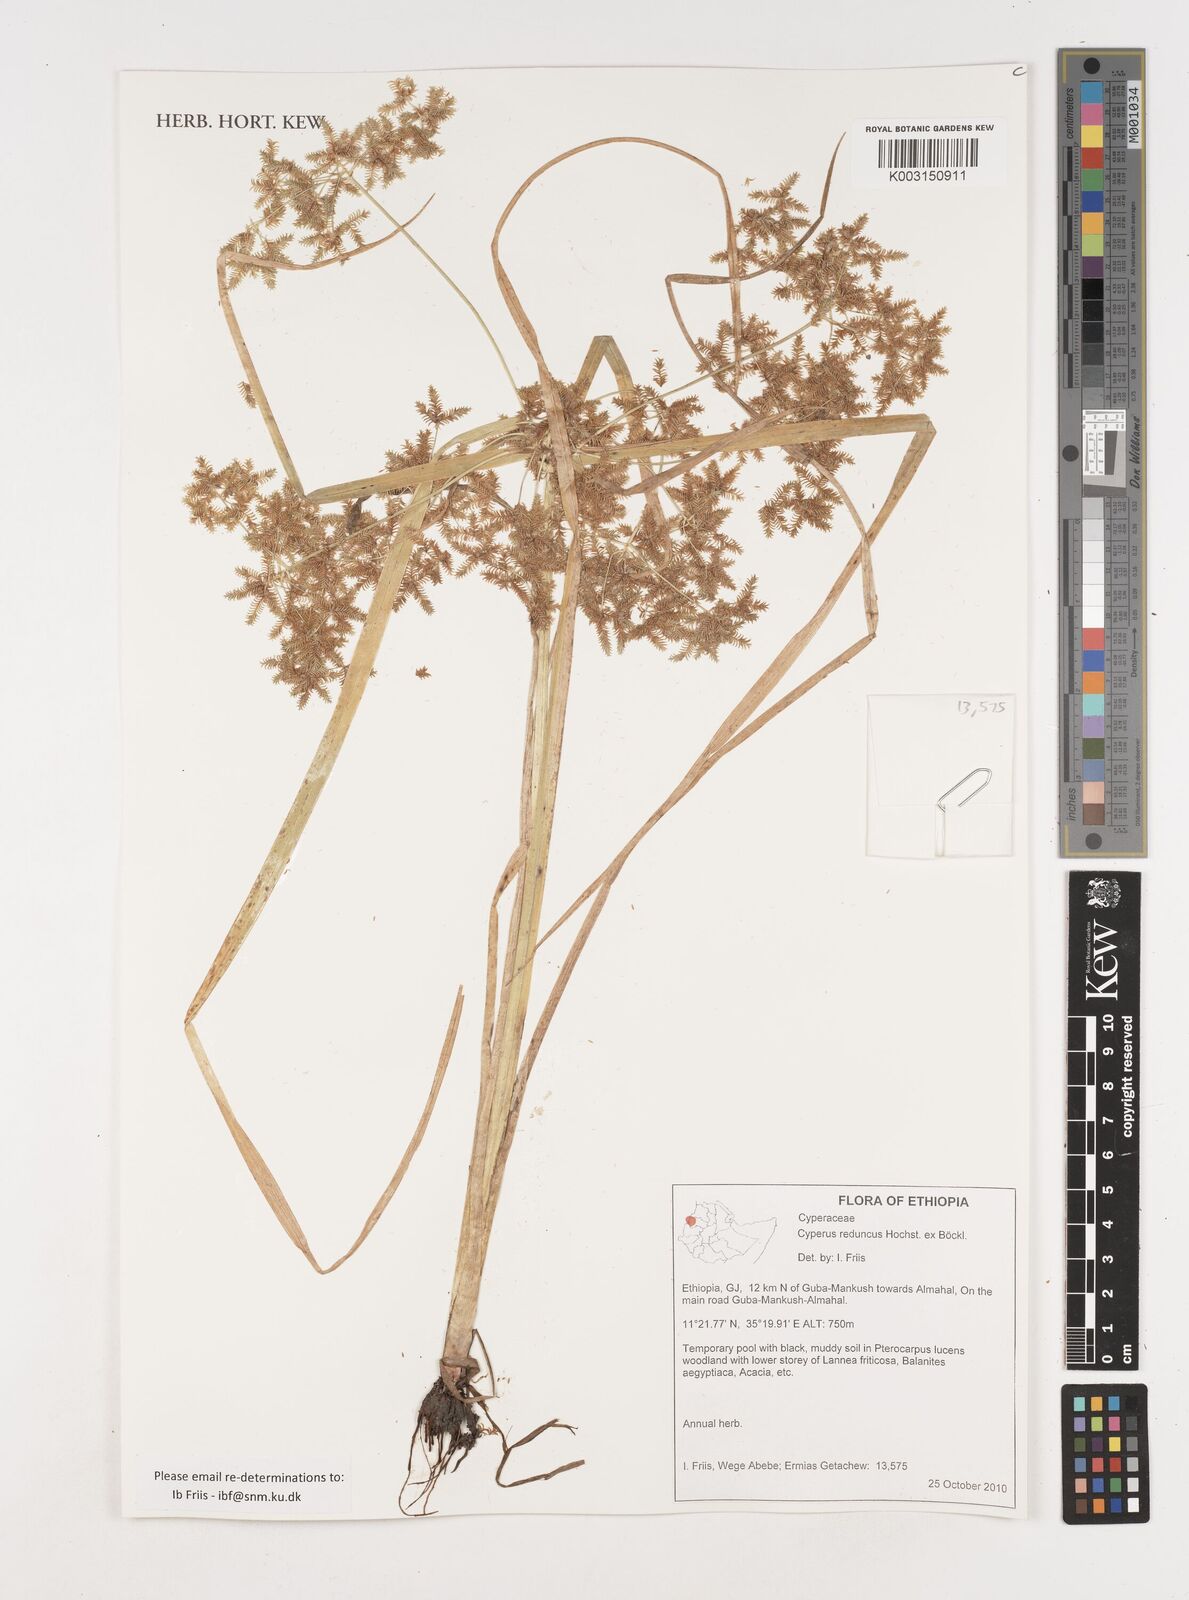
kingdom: Plantae
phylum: Tracheophyta
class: Liliopsida
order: Poales
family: Cyperaceae
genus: Cyperus
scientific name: Cyperus reduncus
